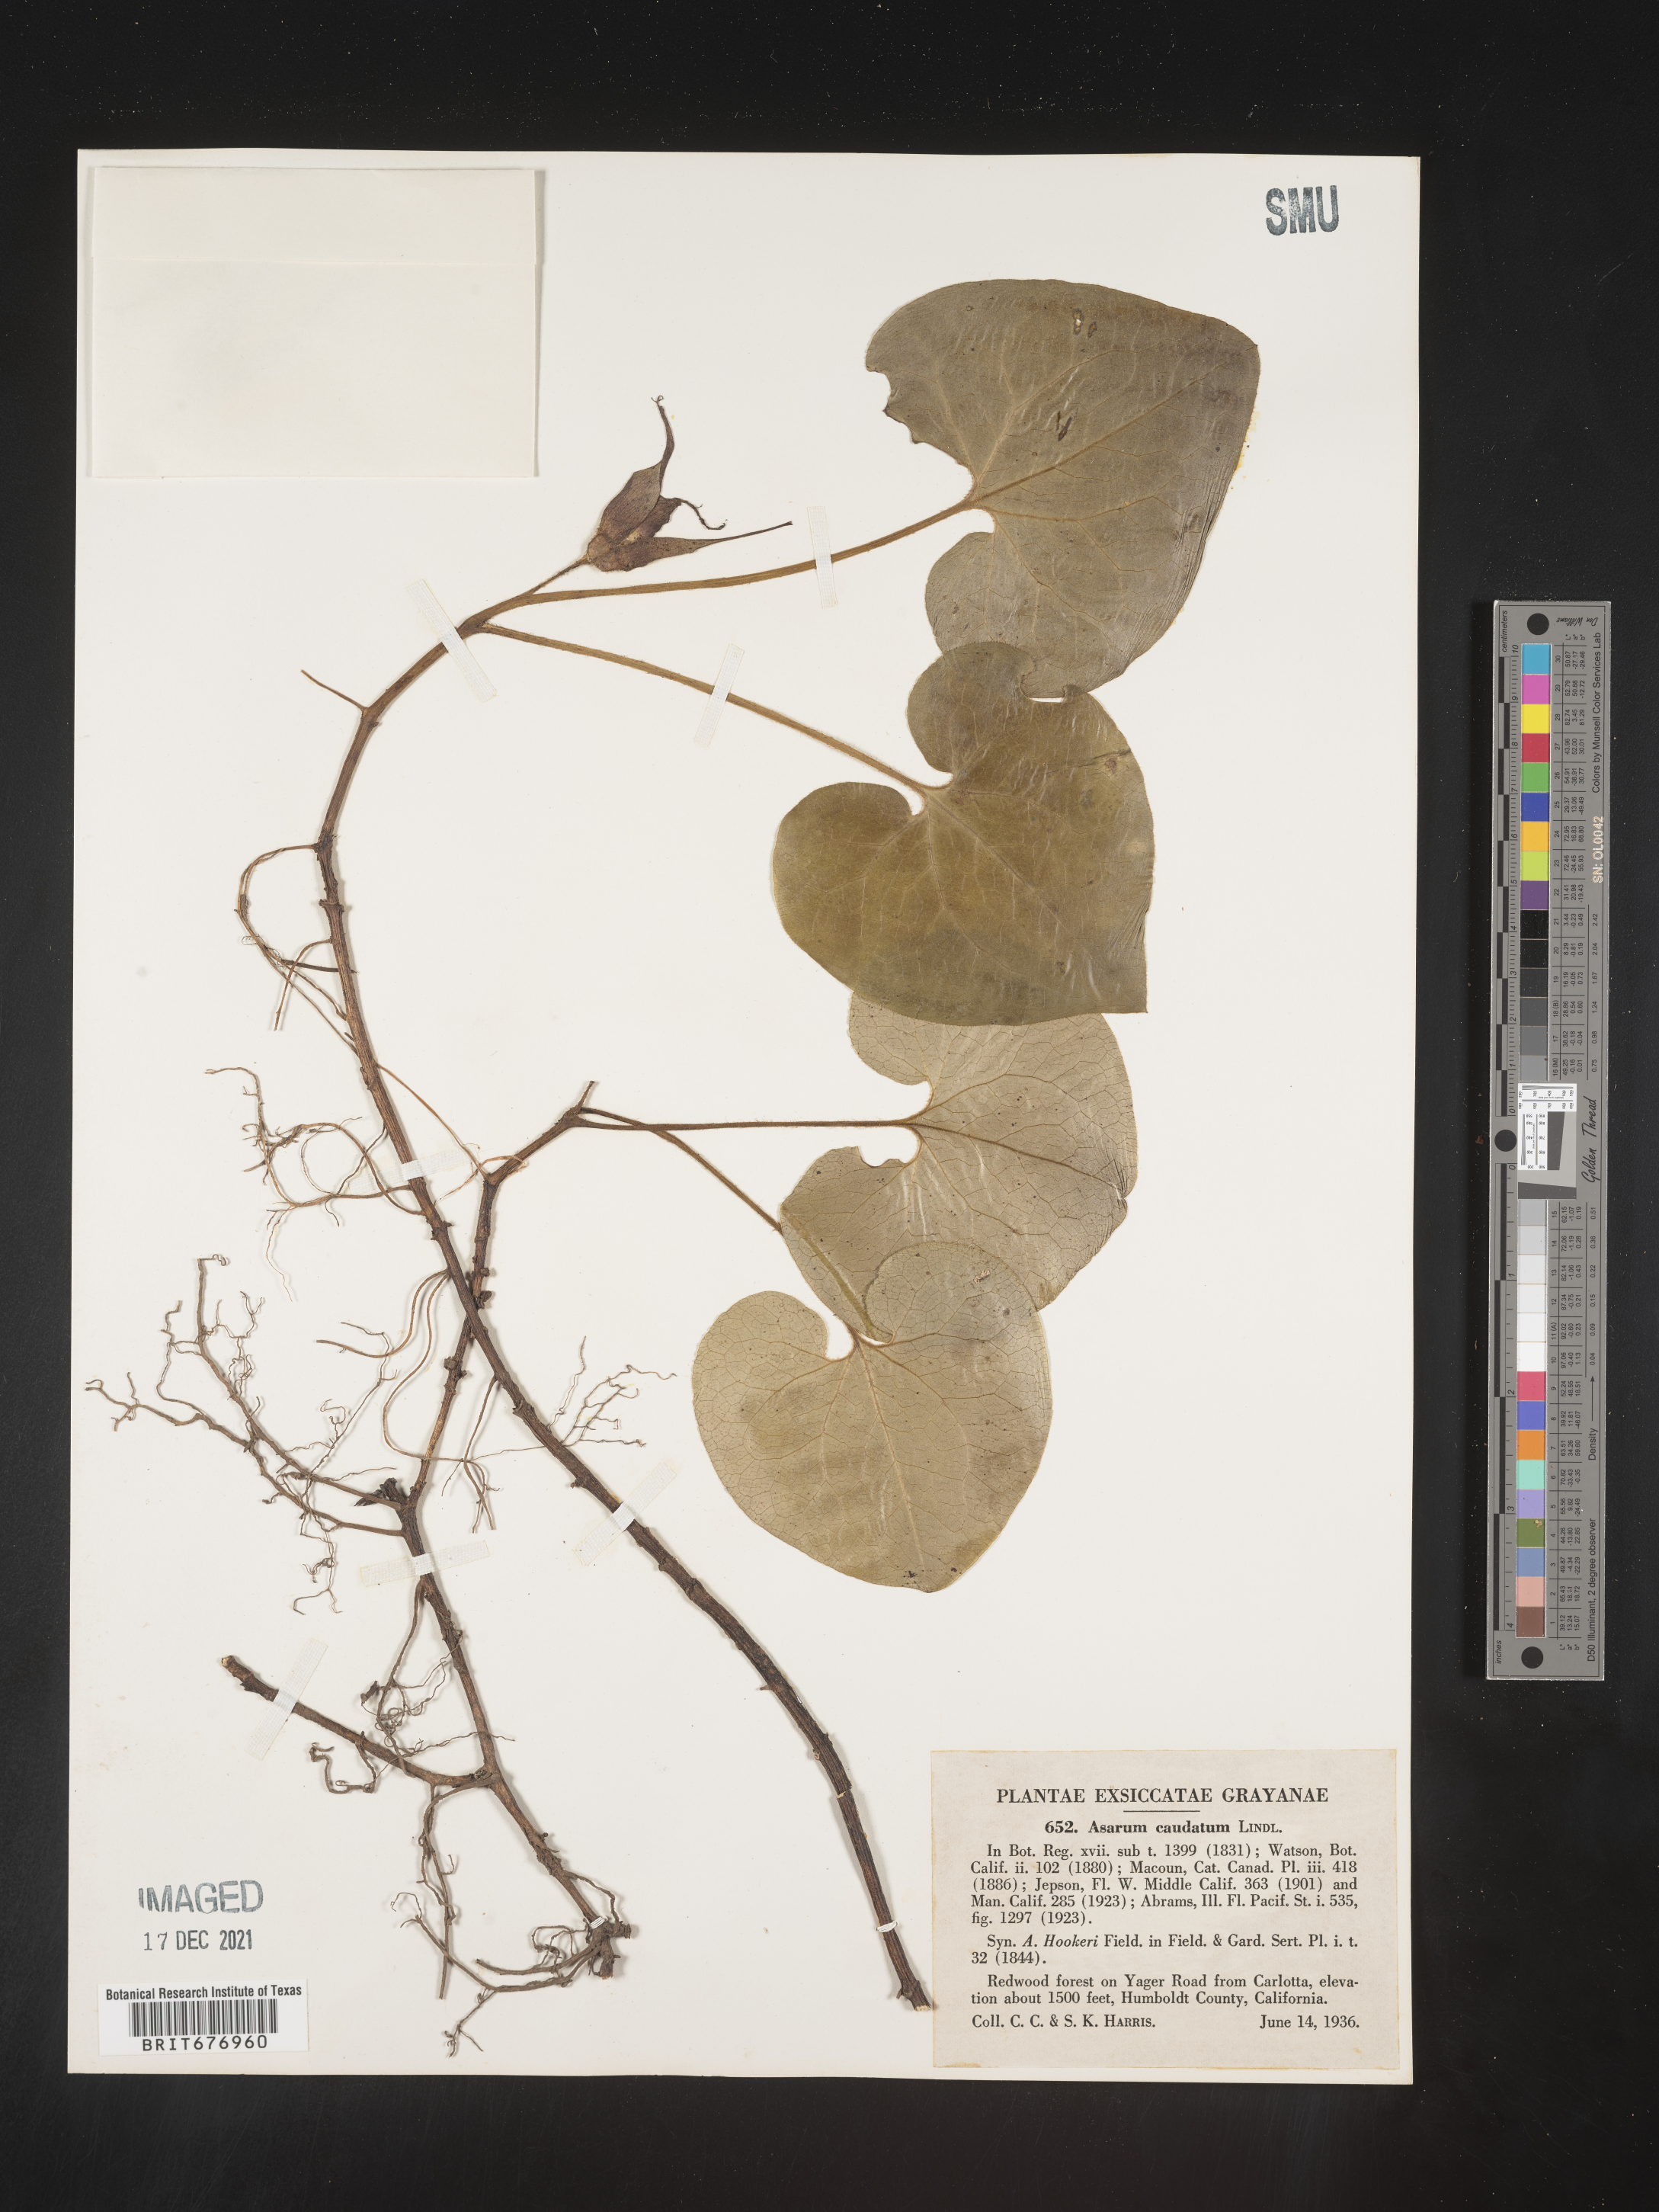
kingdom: Plantae
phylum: Tracheophyta
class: Magnoliopsida
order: Piperales
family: Aristolochiaceae
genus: Asarum
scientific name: Asarum caudatum
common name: Wild ginger
